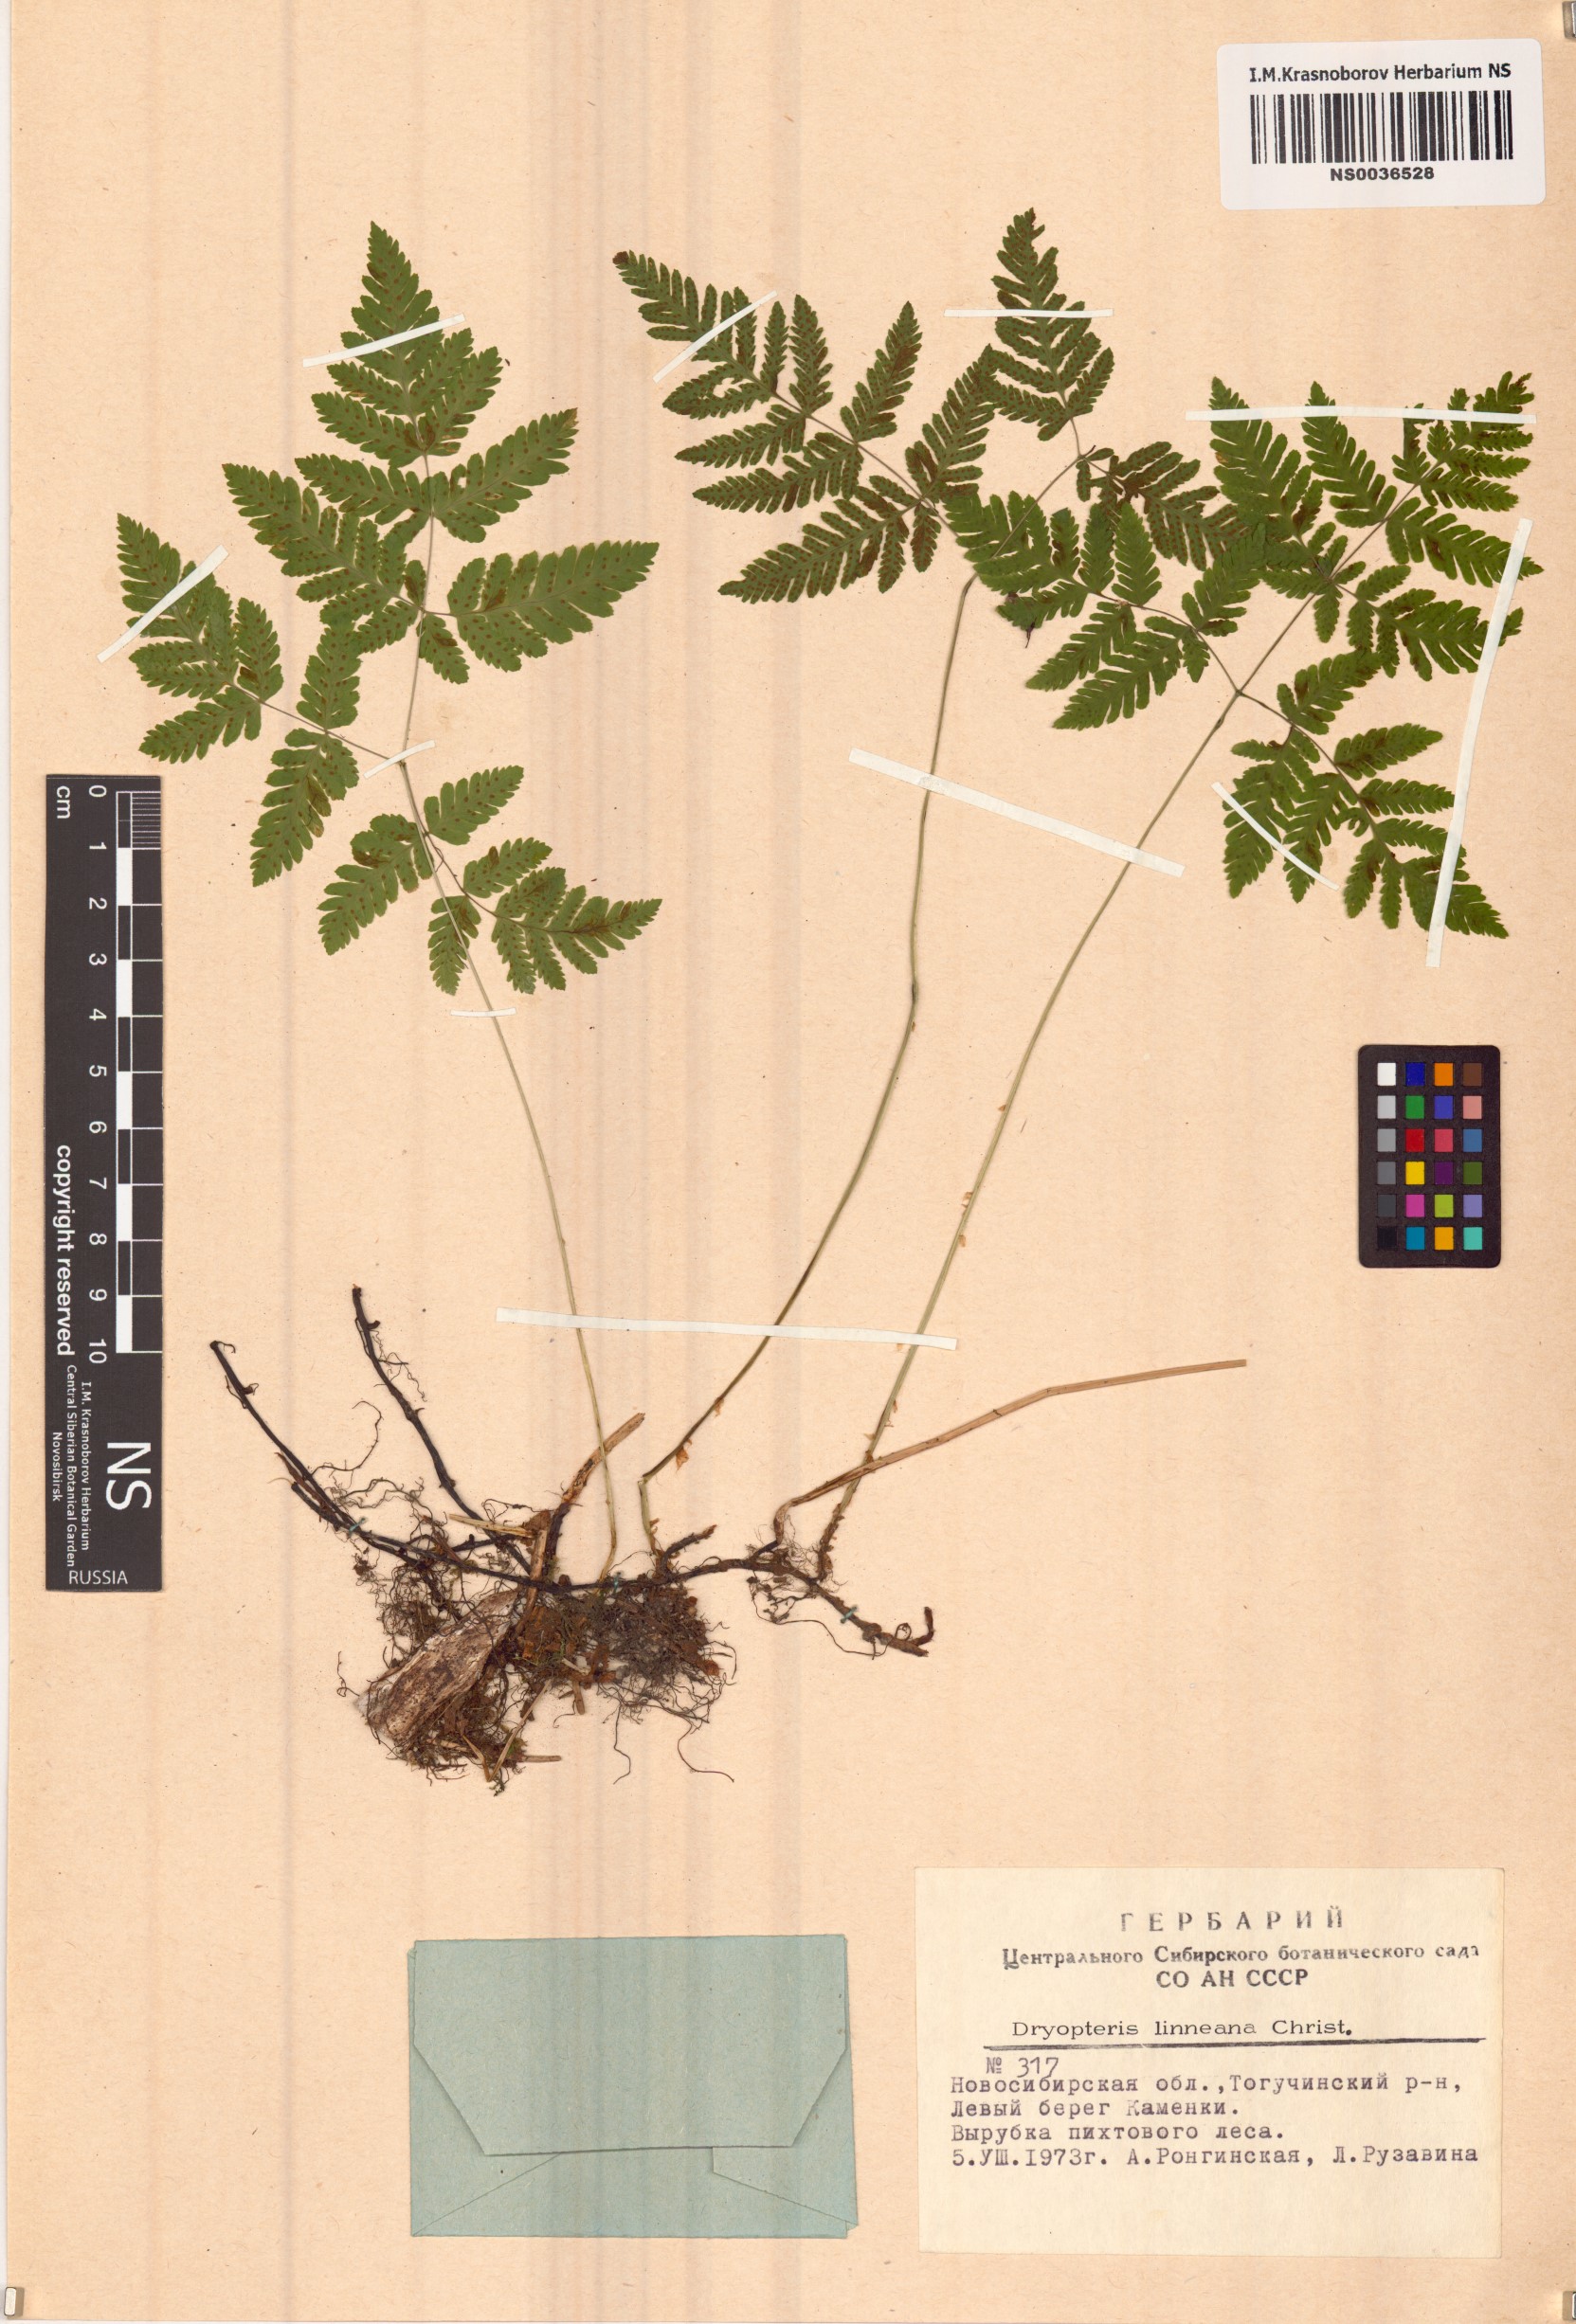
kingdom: Plantae
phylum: Tracheophyta
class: Polypodiopsida
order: Polypodiales
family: Cystopteridaceae
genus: Gymnocarpium
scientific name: Gymnocarpium dryopteris
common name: Oak fern
